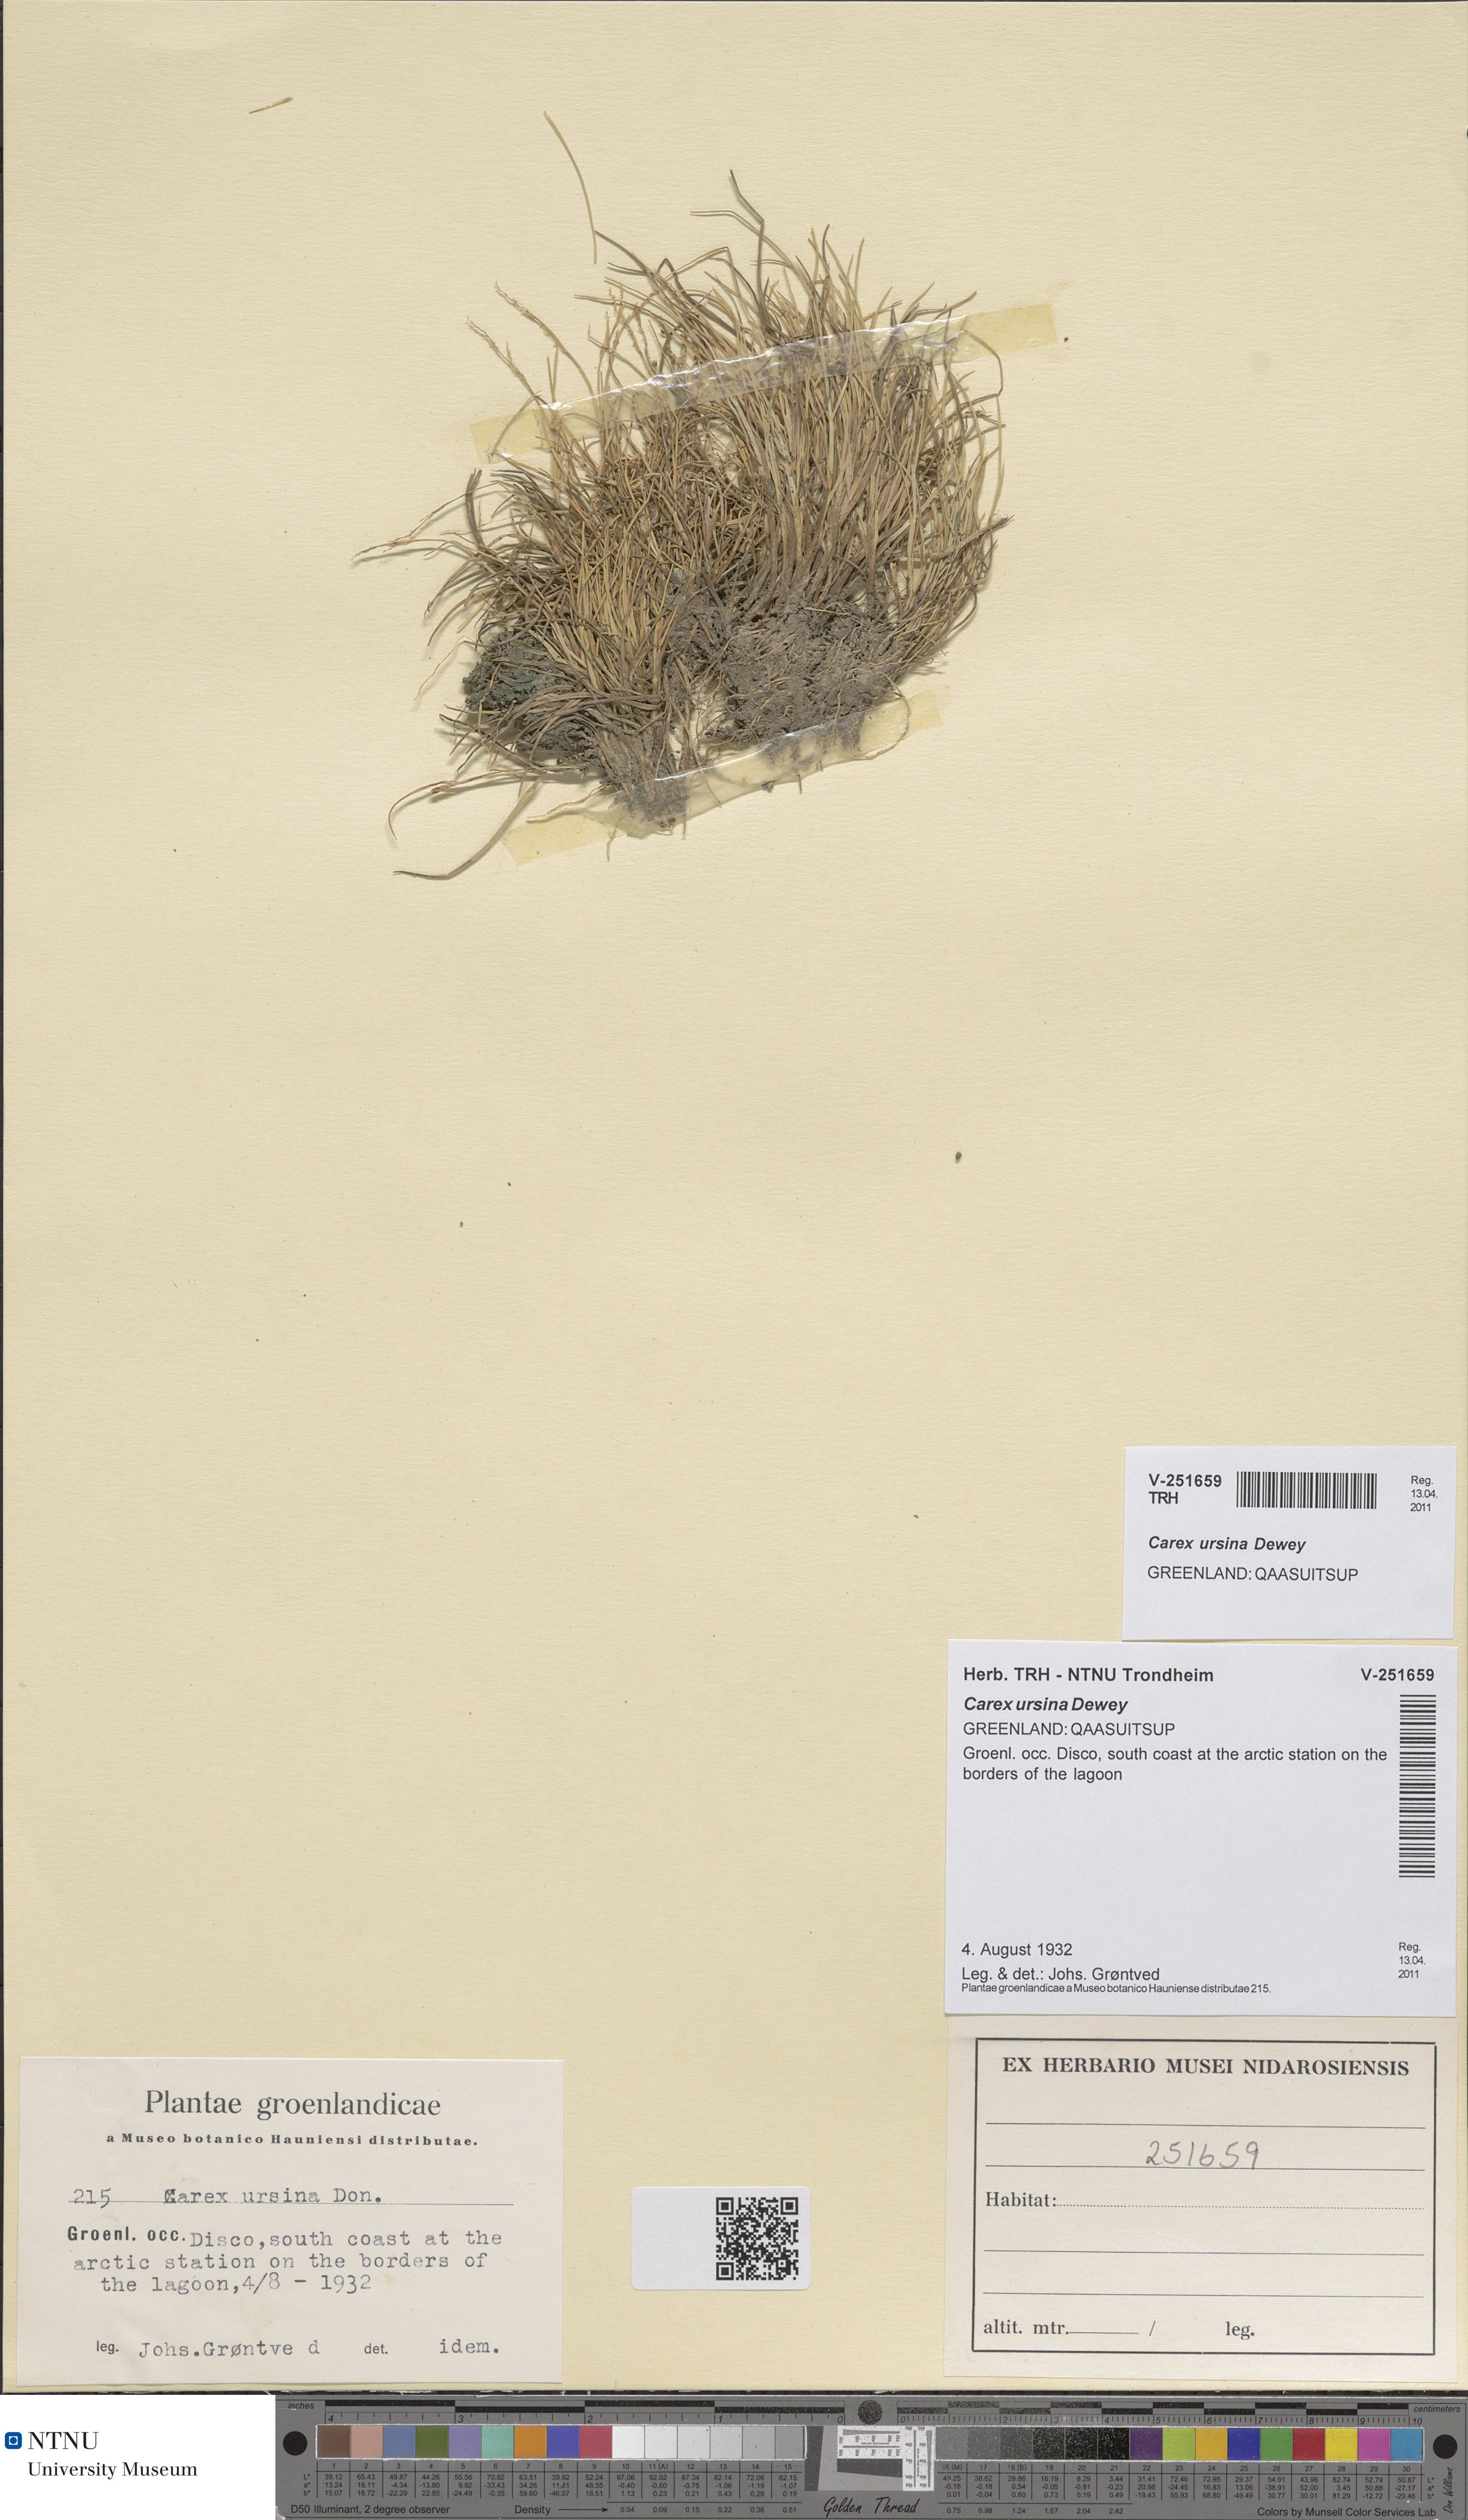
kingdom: Plantae
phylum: Tracheophyta
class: Liliopsida
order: Poales
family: Cyperaceae
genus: Carex
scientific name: Carex ursina
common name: Bear sedge
